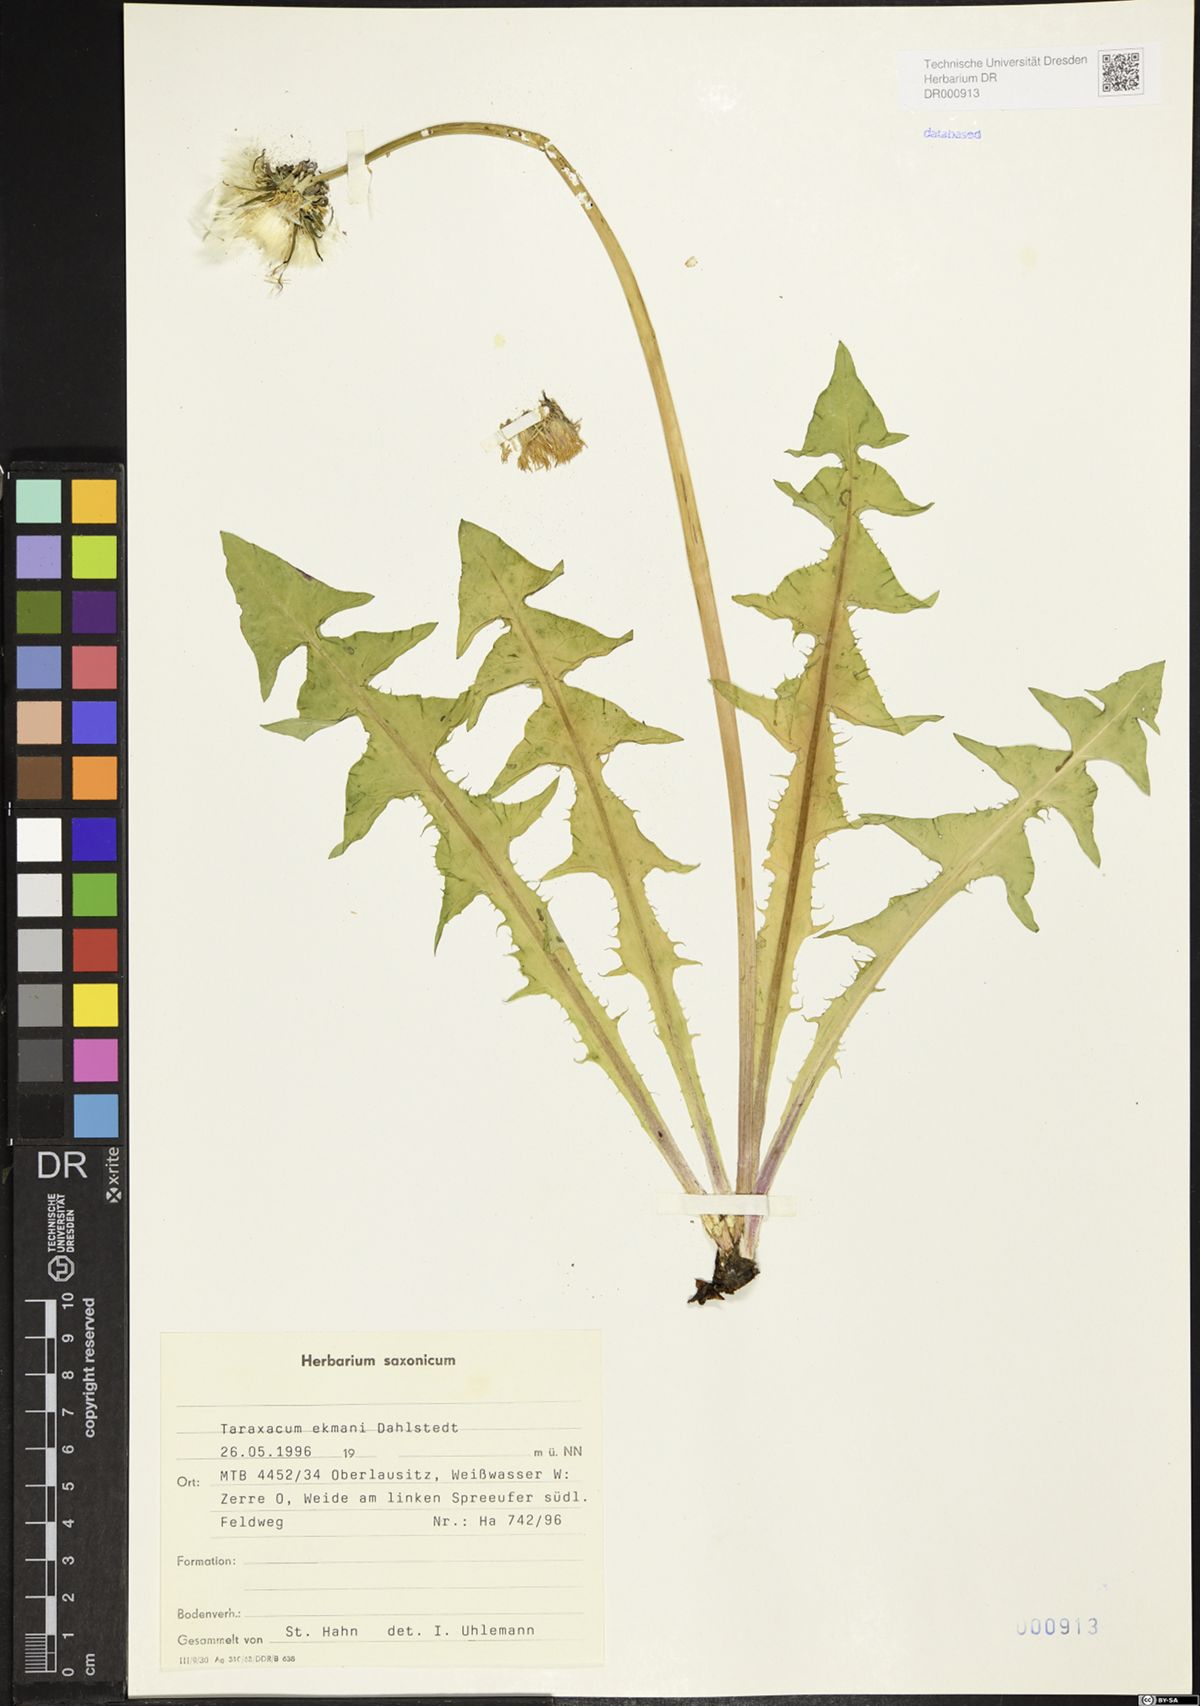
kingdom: Plantae
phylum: Tracheophyta
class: Magnoliopsida
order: Asterales
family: Asteraceae
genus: Taraxacum
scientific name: Taraxacum ekmanii
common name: Ekman's dandelion
